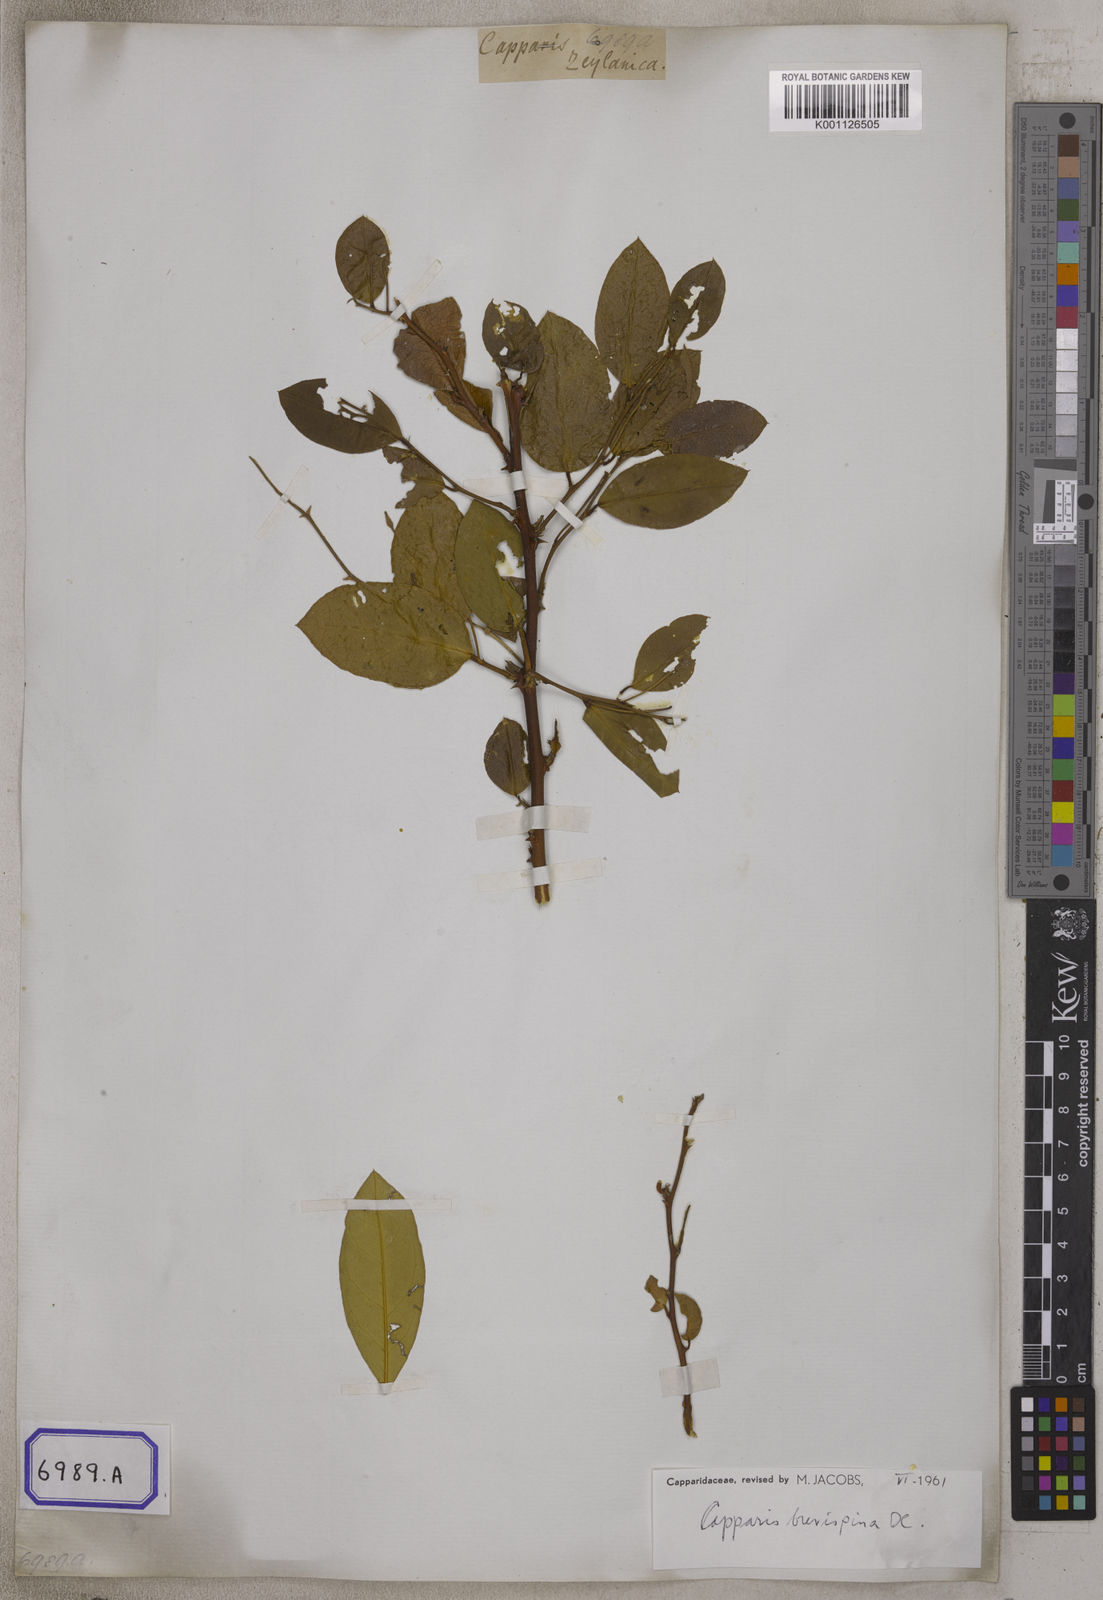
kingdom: Plantae
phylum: Tracheophyta
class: Magnoliopsida
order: Brassicales
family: Capparaceae
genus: Capparis
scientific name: Capparis zeylanica
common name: Ceylon caper
